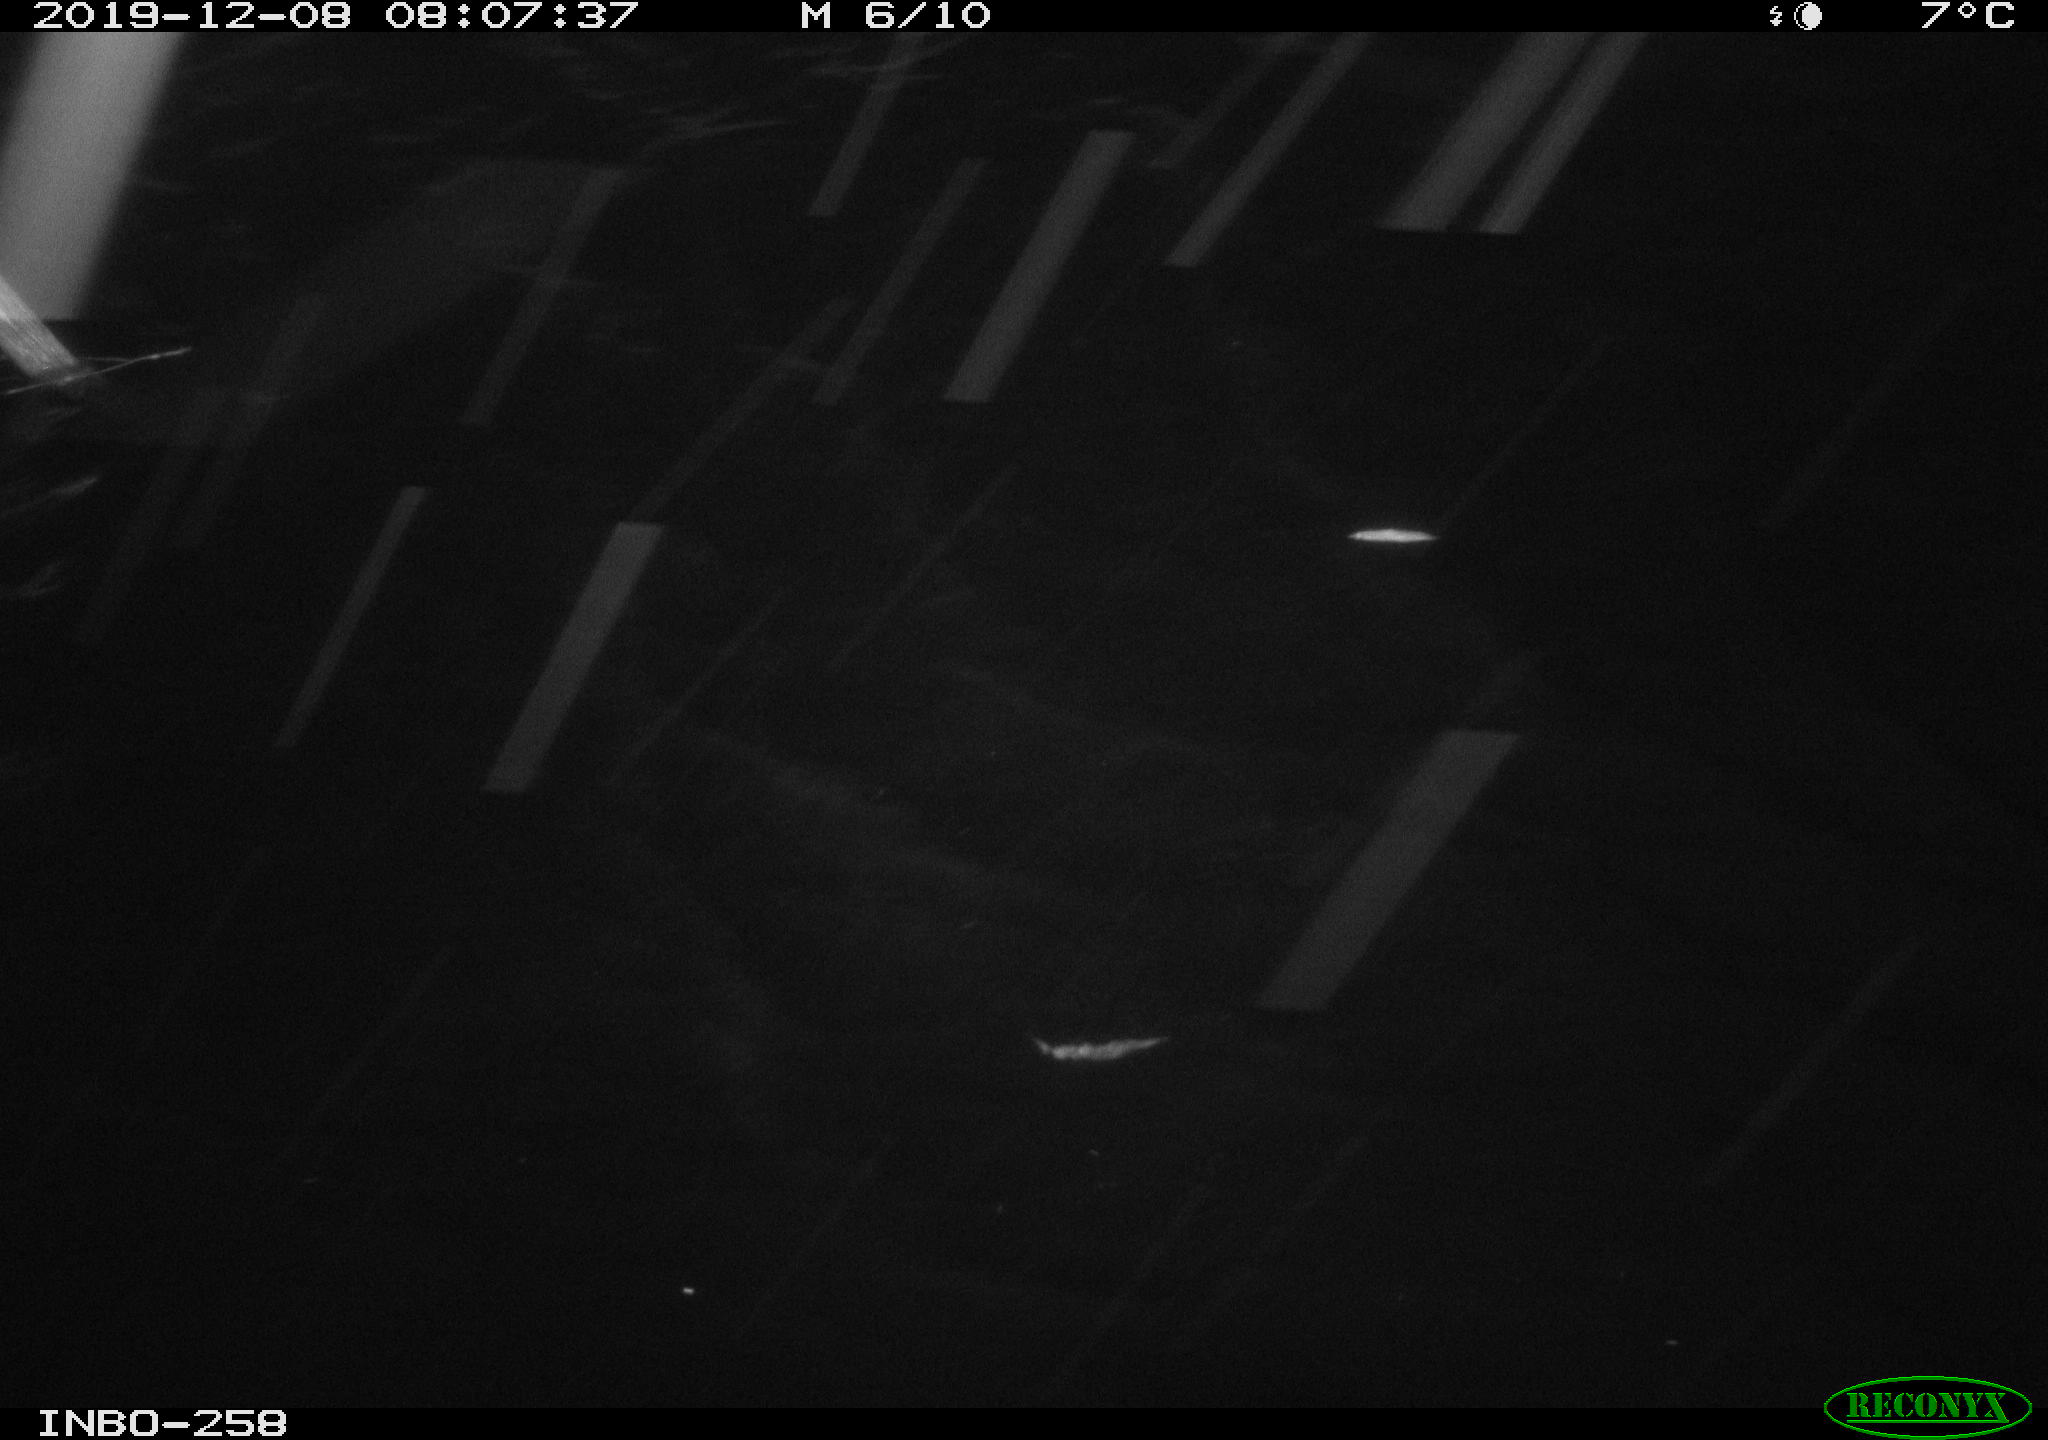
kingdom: Animalia
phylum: Chordata
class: Aves
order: Gruiformes
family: Rallidae
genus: Gallinula
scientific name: Gallinula chloropus
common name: Common moorhen
